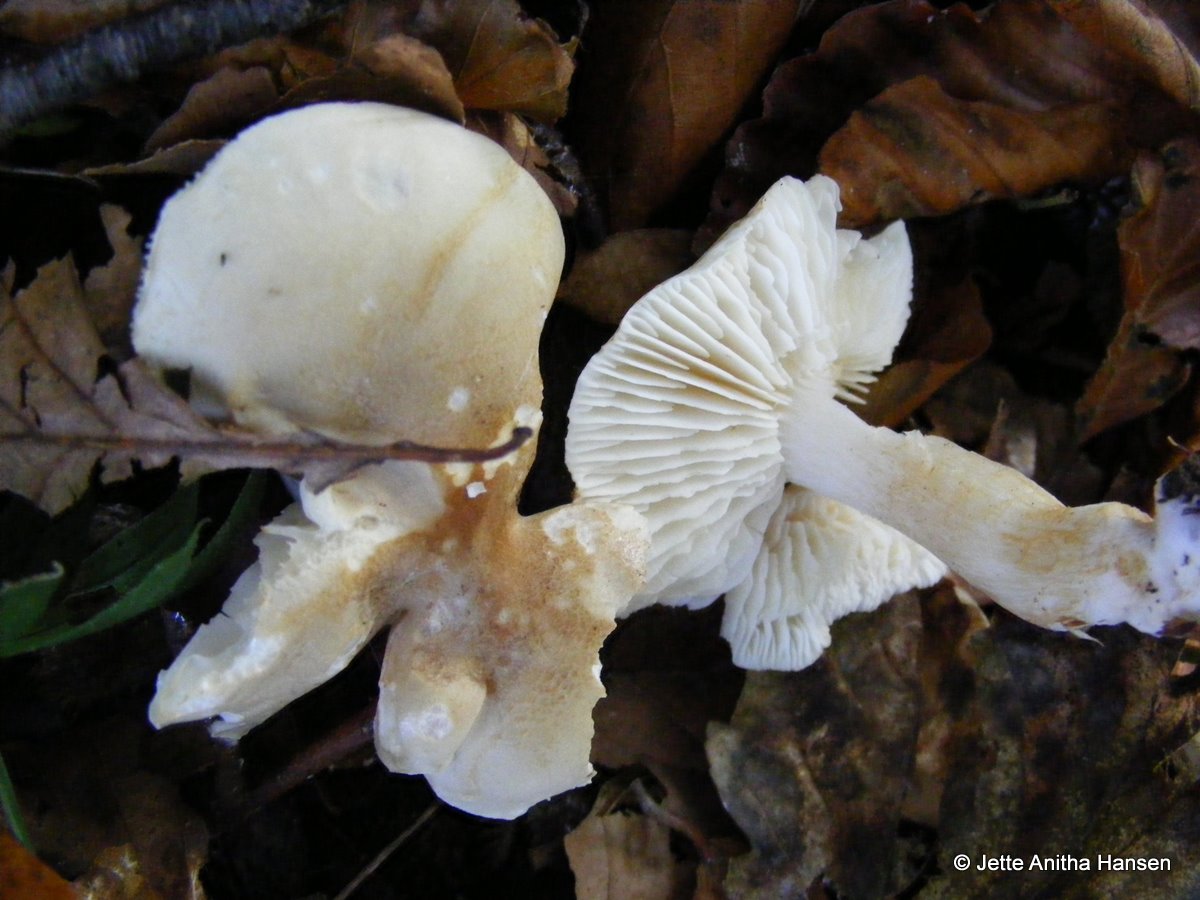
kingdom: Fungi
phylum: Basidiomycota
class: Agaricomycetes
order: Agaricales
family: Tricholomataceae
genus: Tricholoma
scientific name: Tricholoma lascivum
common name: stinkende ridderhat
